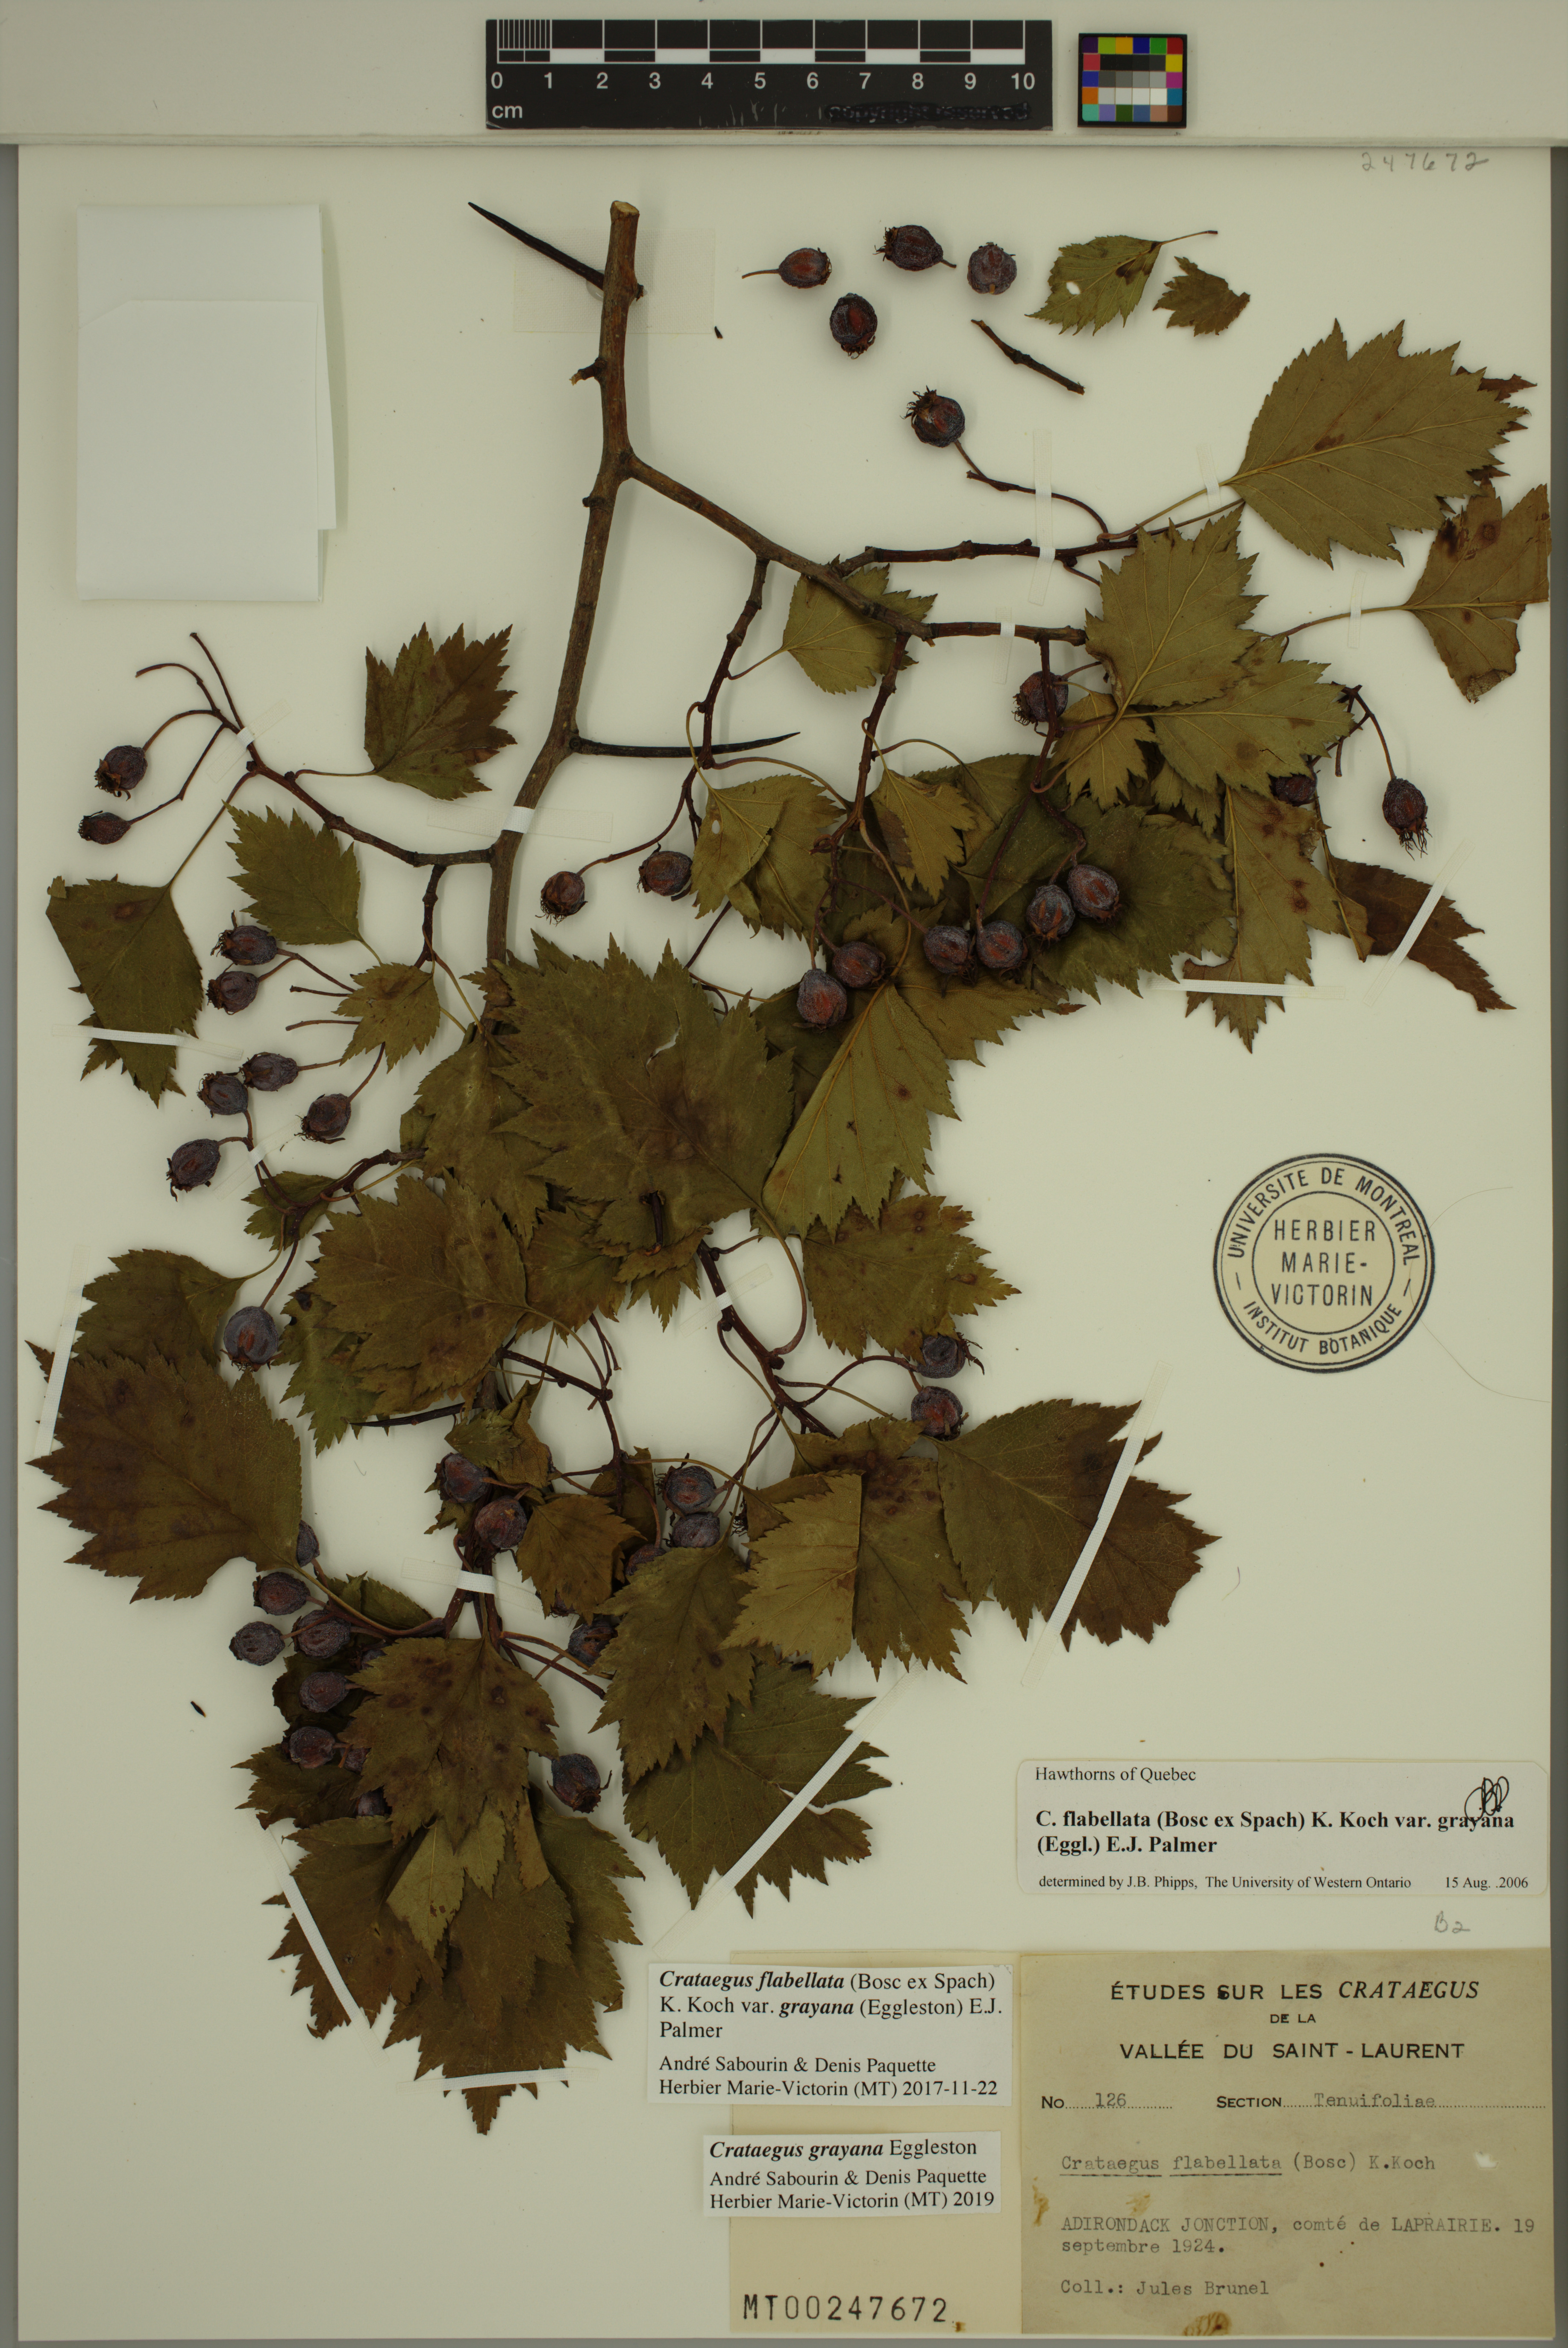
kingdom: Plantae
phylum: Tracheophyta
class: Magnoliopsida
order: Rosales
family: Rosaceae
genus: Crataegus
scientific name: Crataegus schuettei
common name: Schuette's hawthorn
